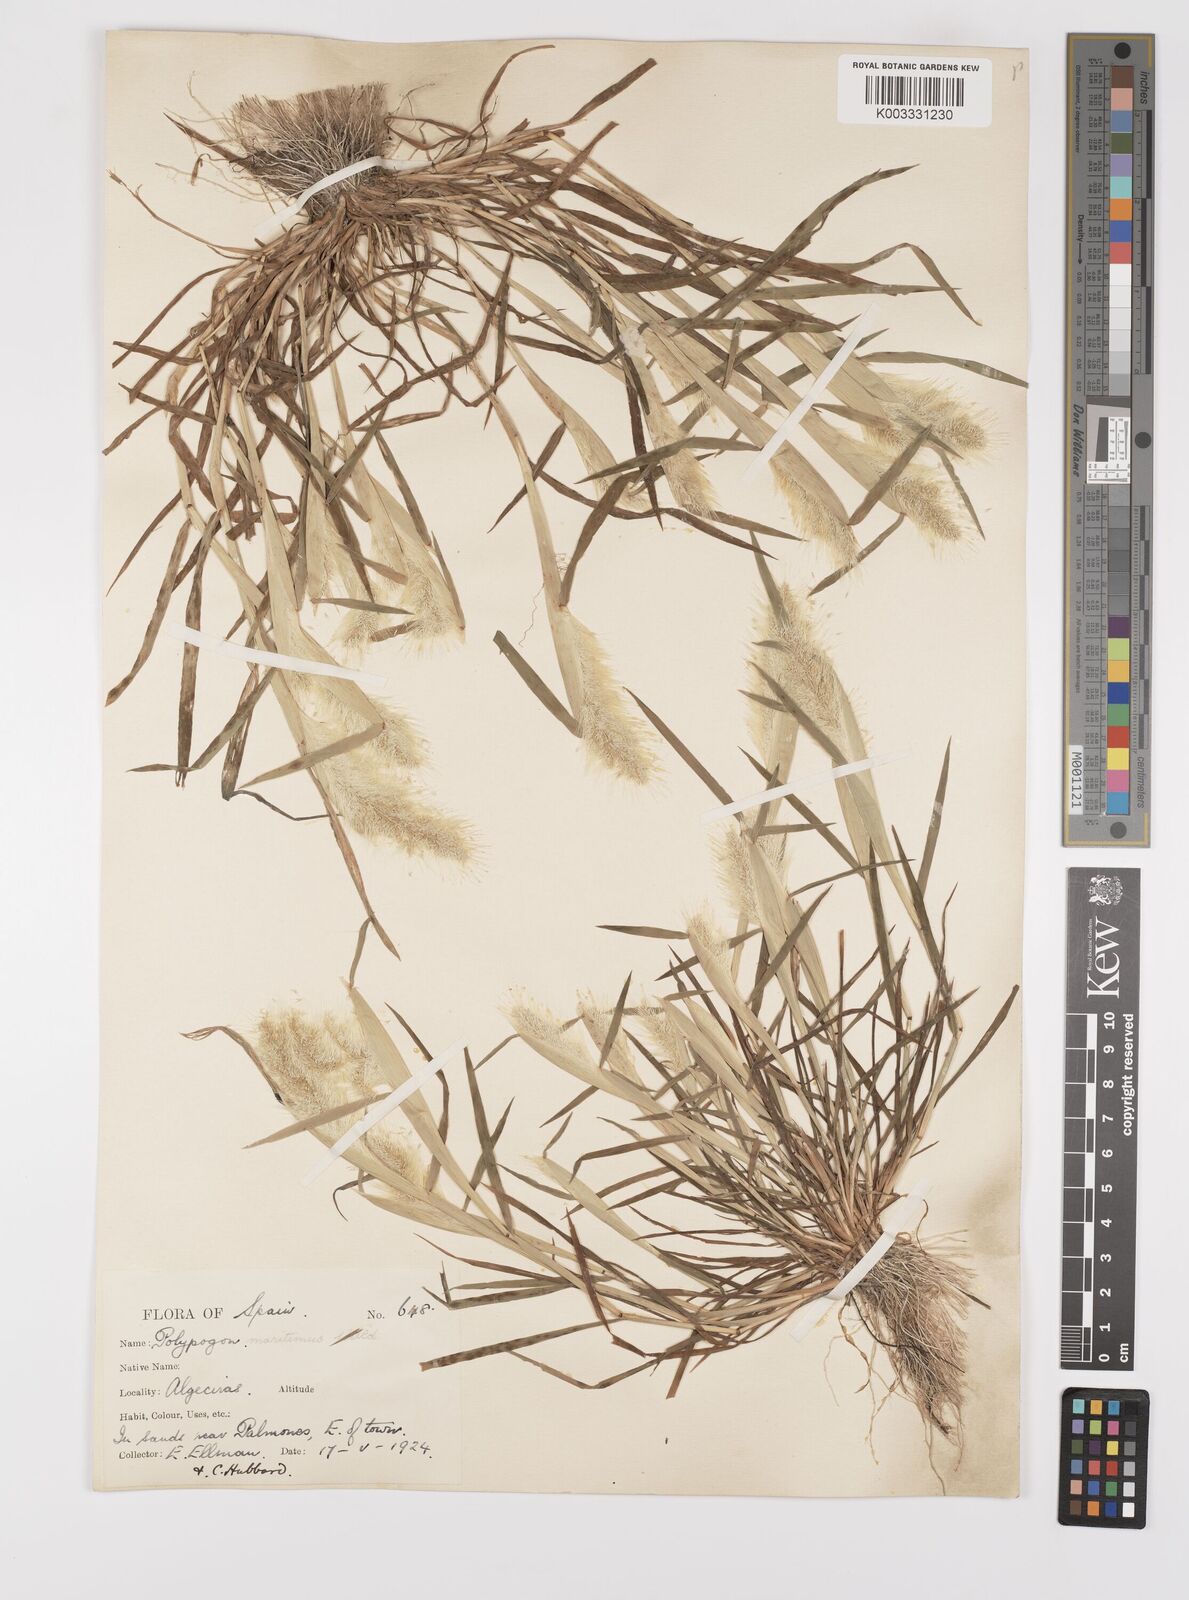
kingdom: Plantae
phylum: Tracheophyta
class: Liliopsida
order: Poales
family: Poaceae
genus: Polypogon
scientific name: Polypogon maritimus
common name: Mediterranean rabbitsfoot grass
